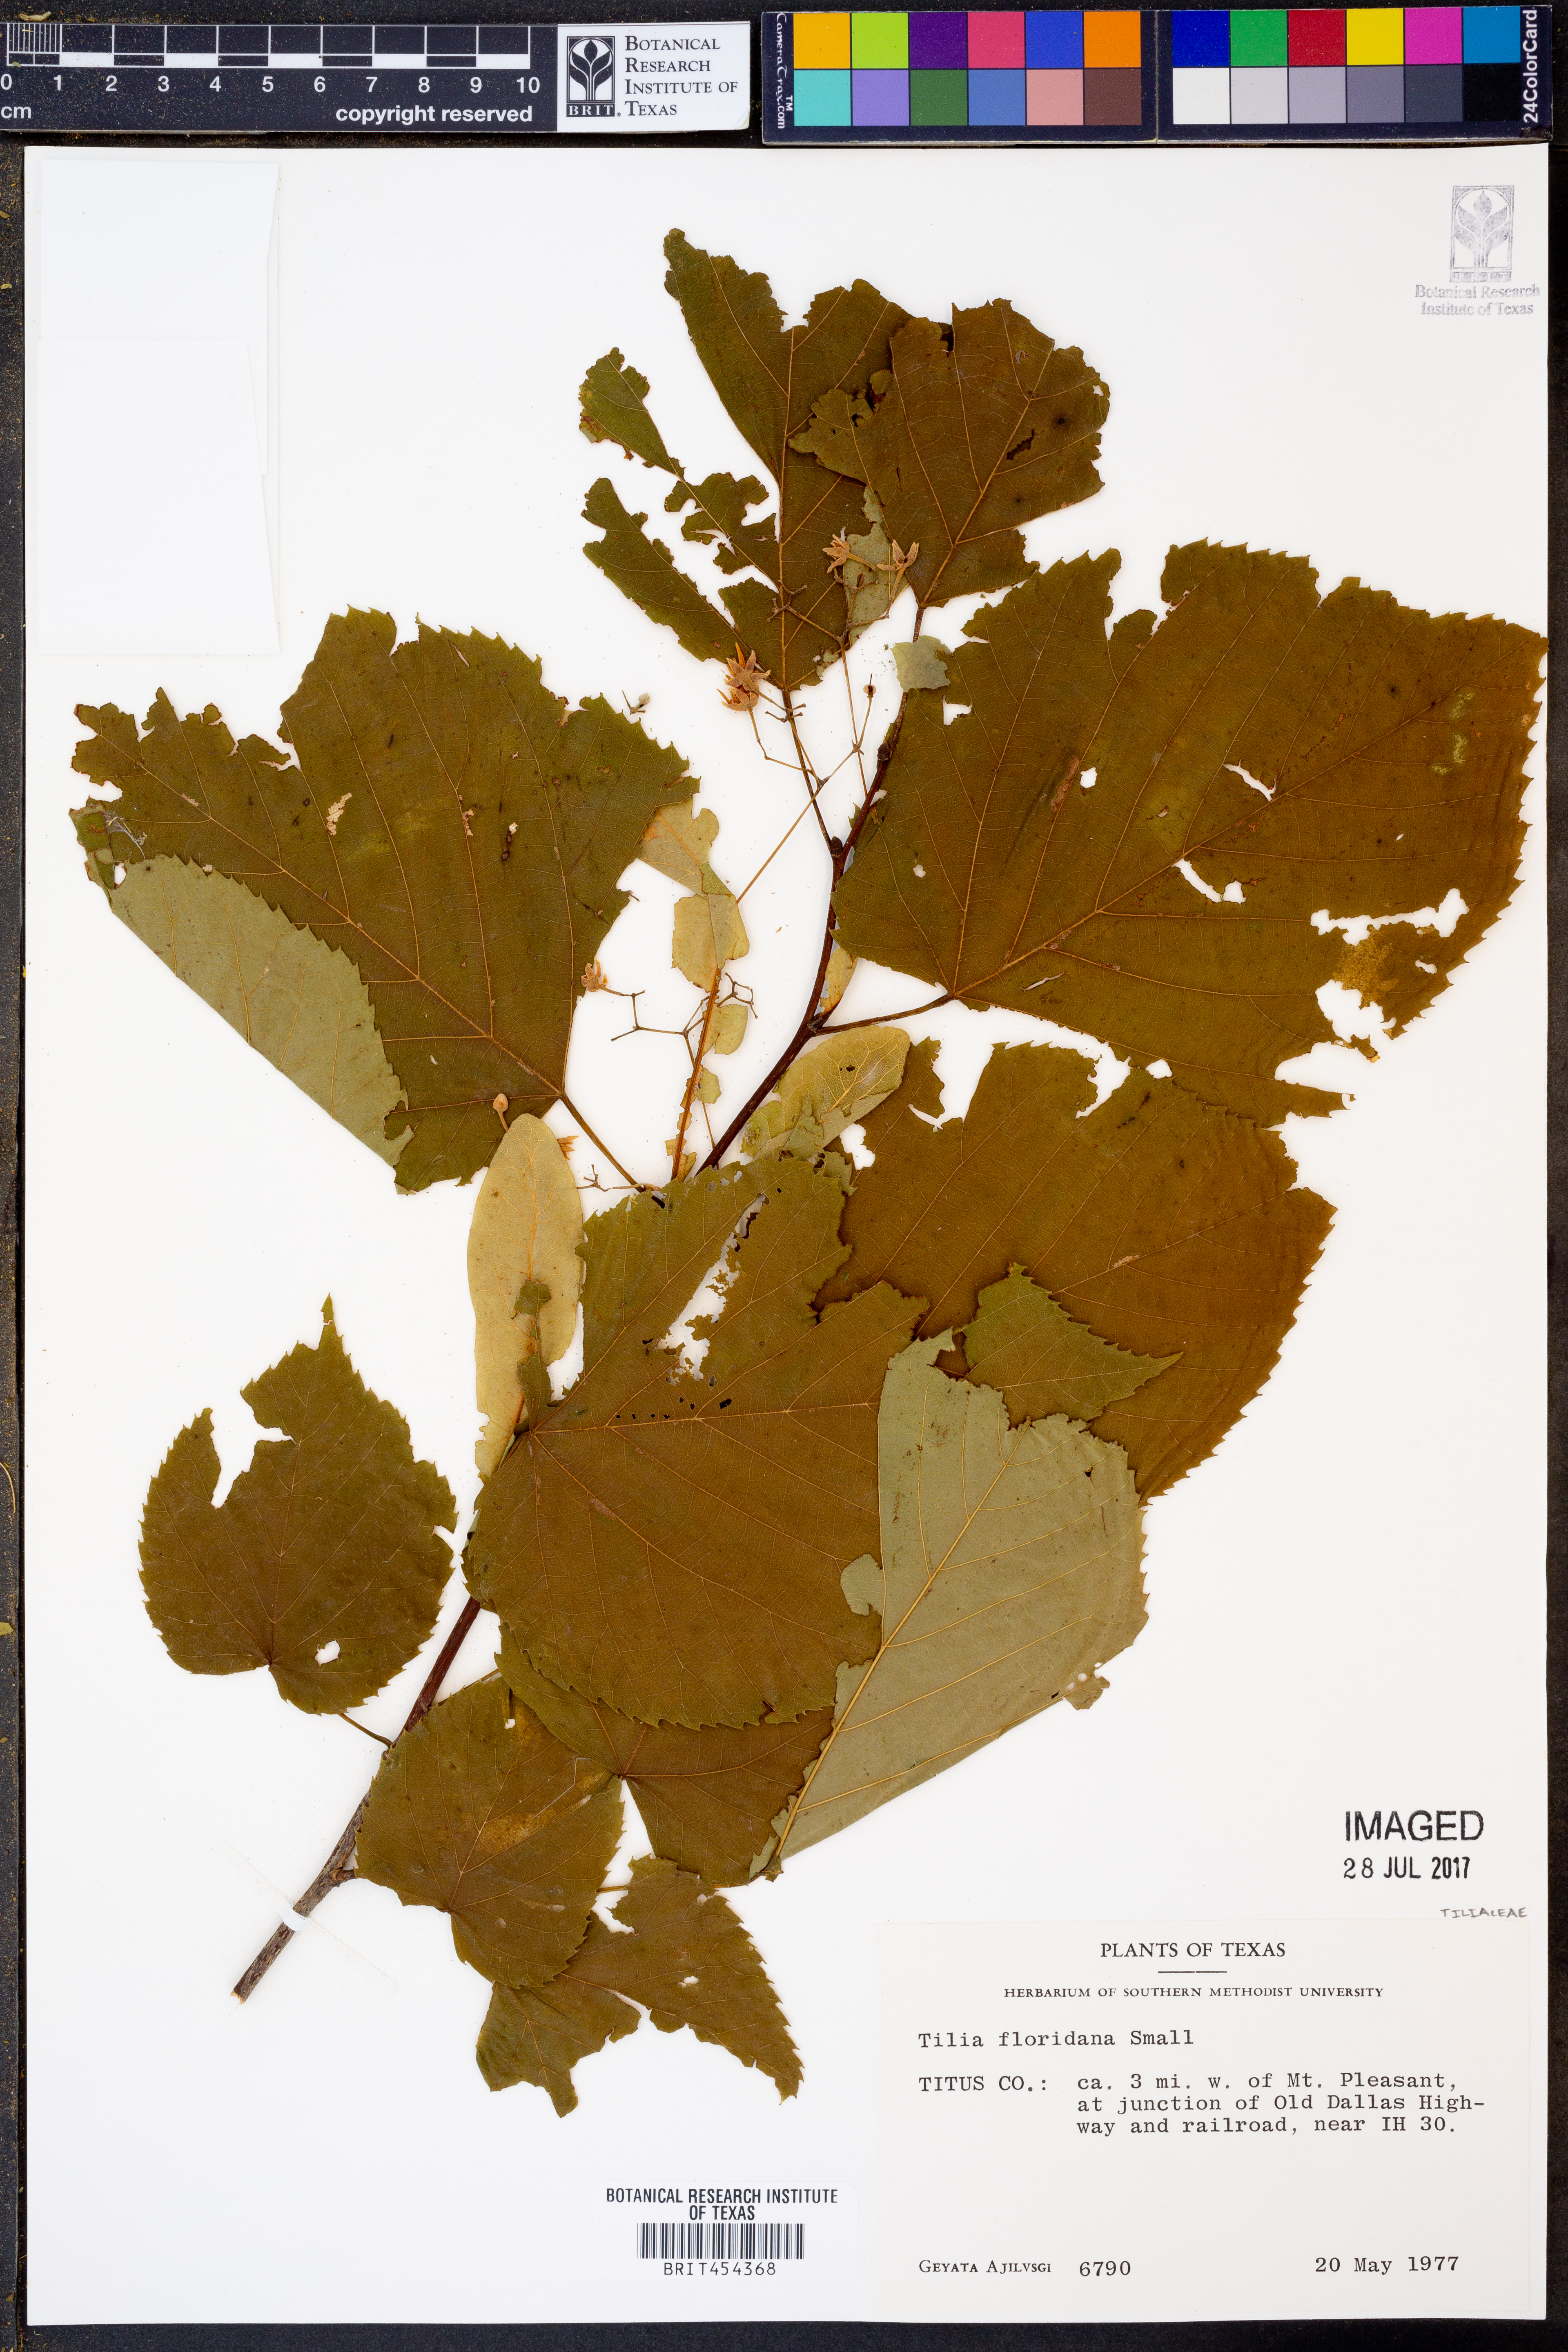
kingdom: Plantae
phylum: Tracheophyta
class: Magnoliopsida
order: Malvales
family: Malvaceae
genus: Tilia
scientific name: Tilia americana
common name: Basswood
